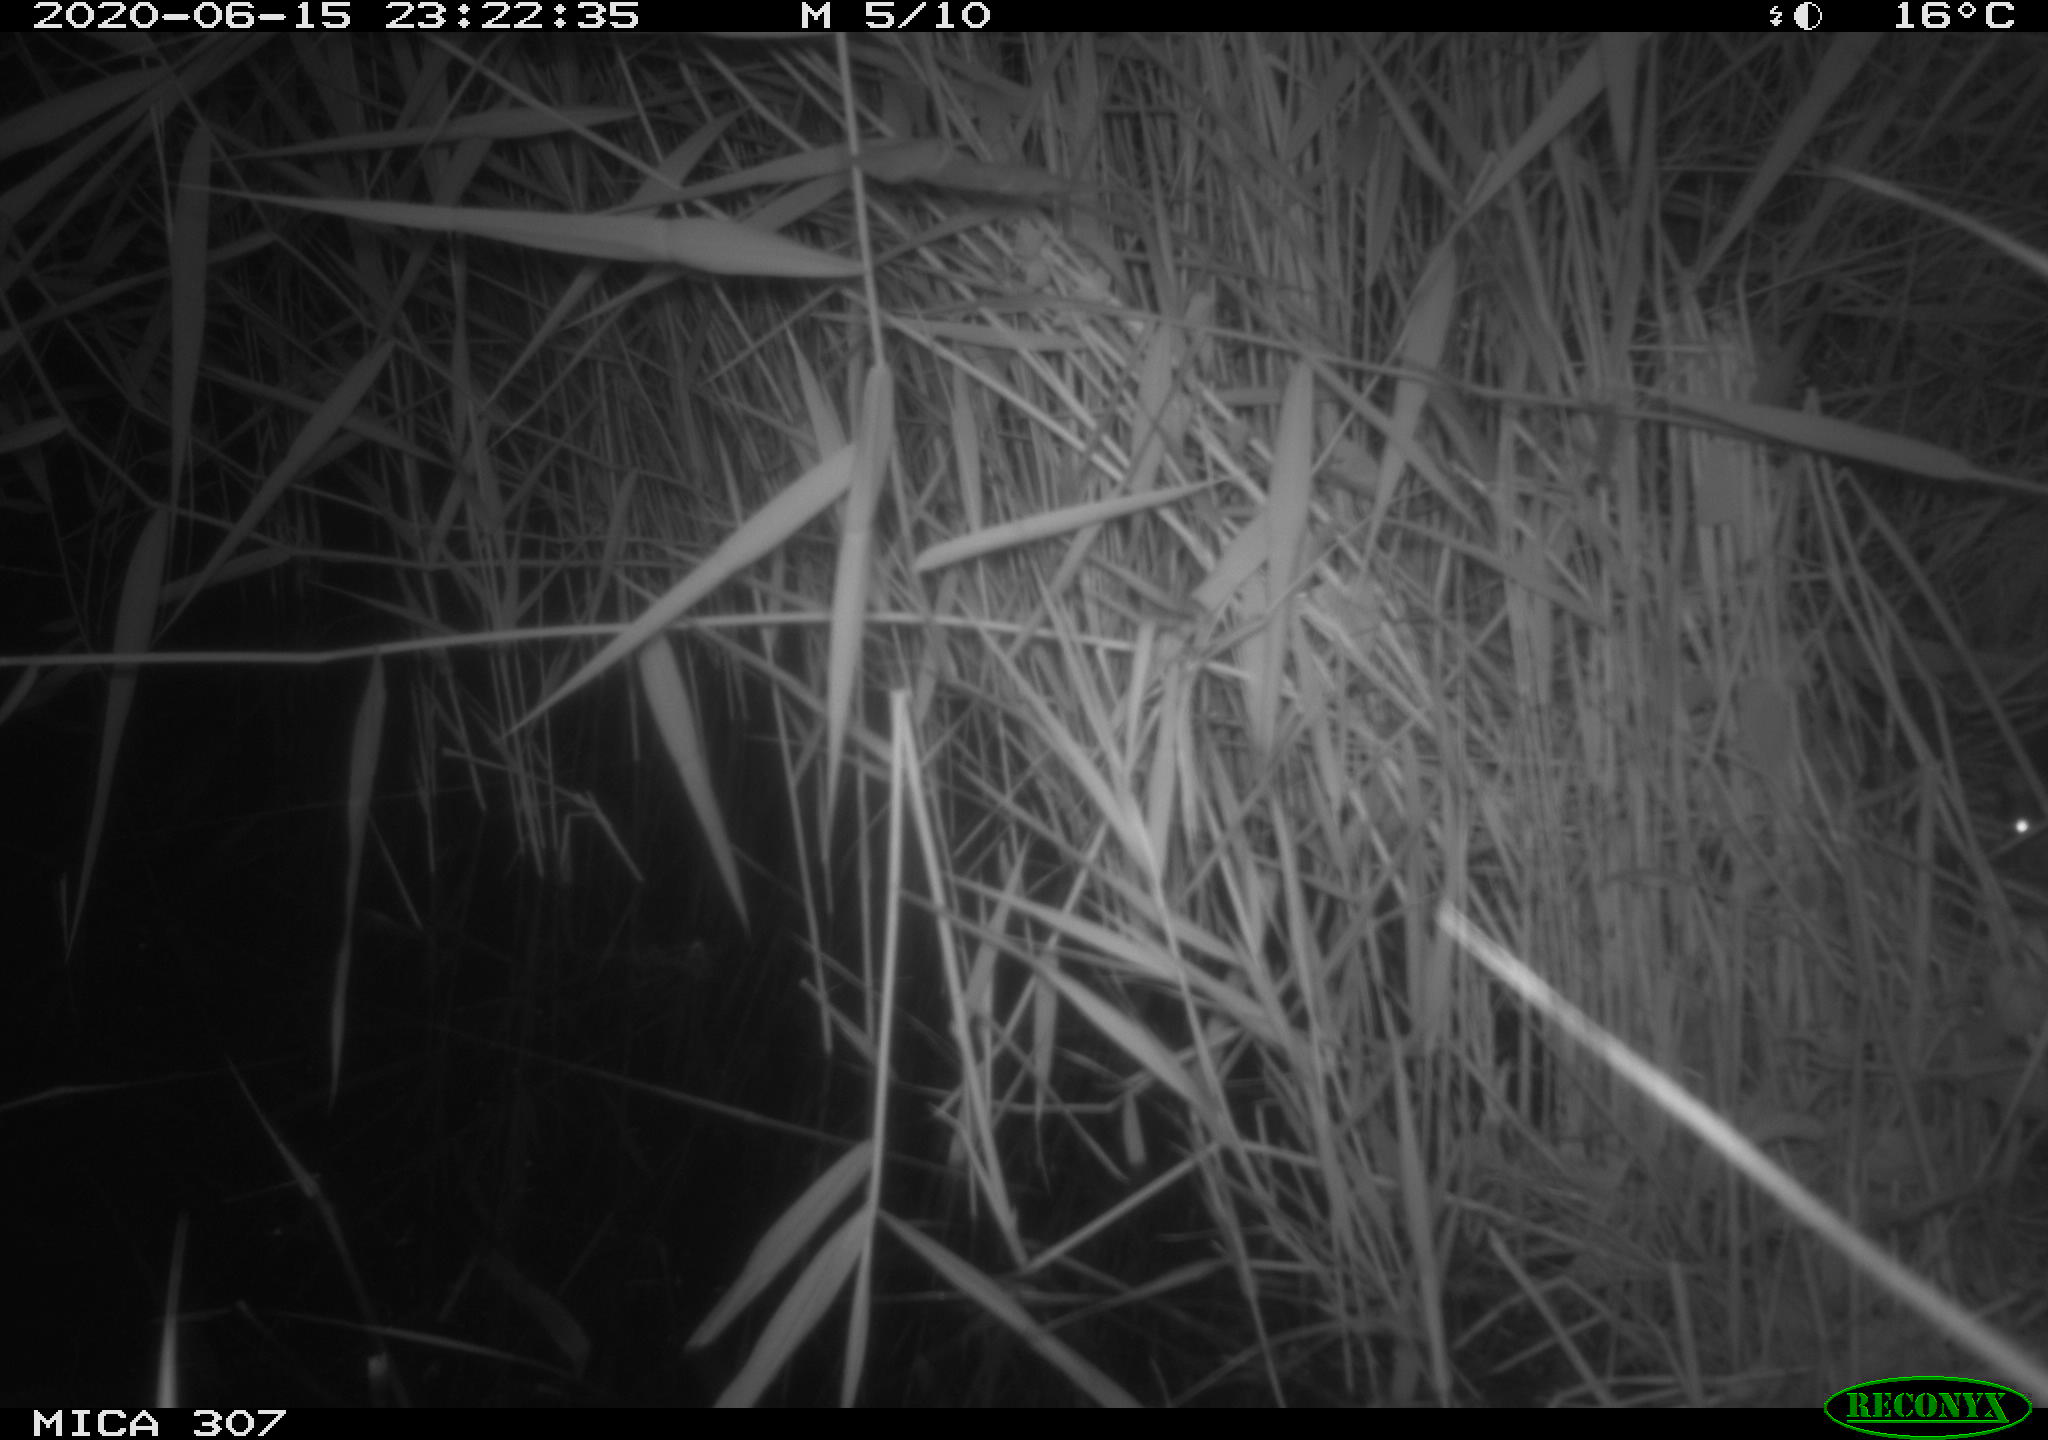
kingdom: Animalia
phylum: Chordata
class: Mammalia
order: Rodentia
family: Muridae
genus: Rattus
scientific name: Rattus norvegicus
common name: Brown rat
